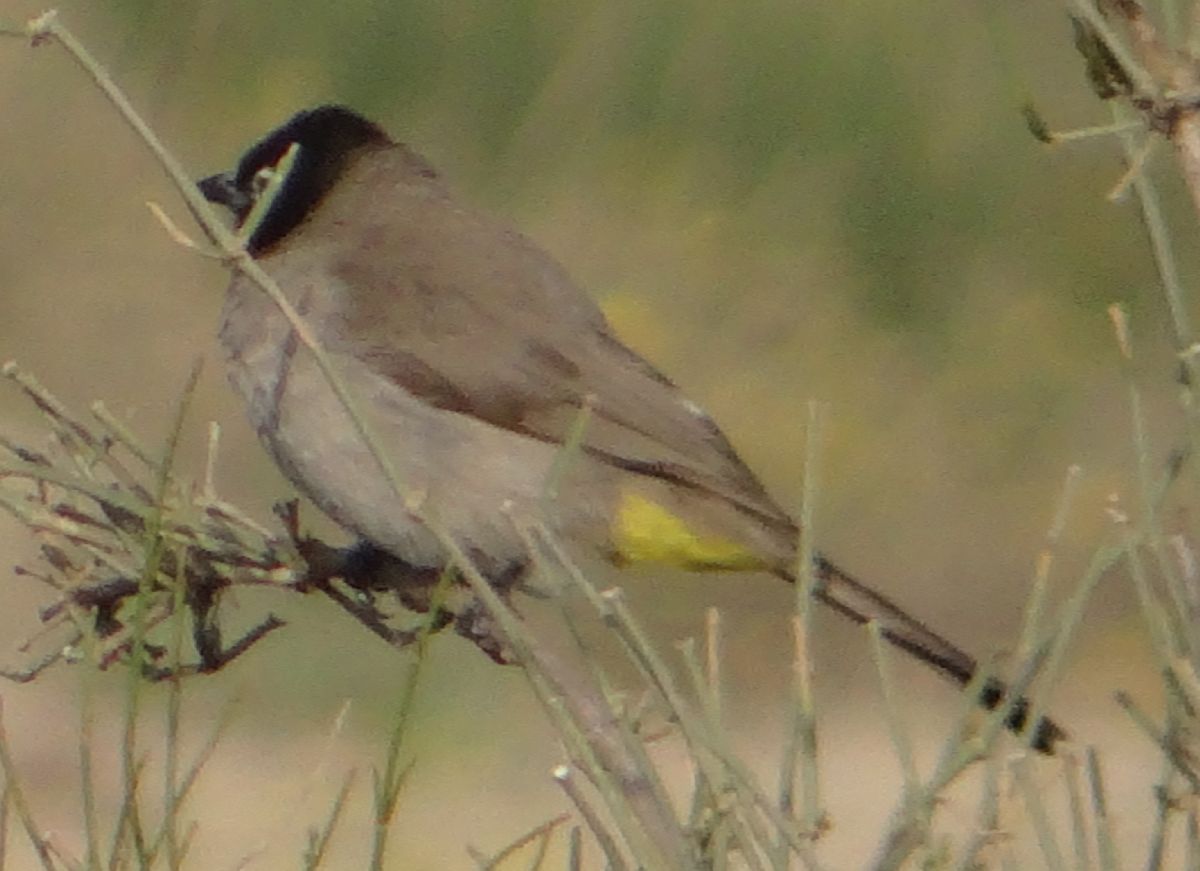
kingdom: Animalia
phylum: Chordata
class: Aves
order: Passeriformes
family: Pycnonotidae
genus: Pycnonotus
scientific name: Pycnonotus xanthopygos
